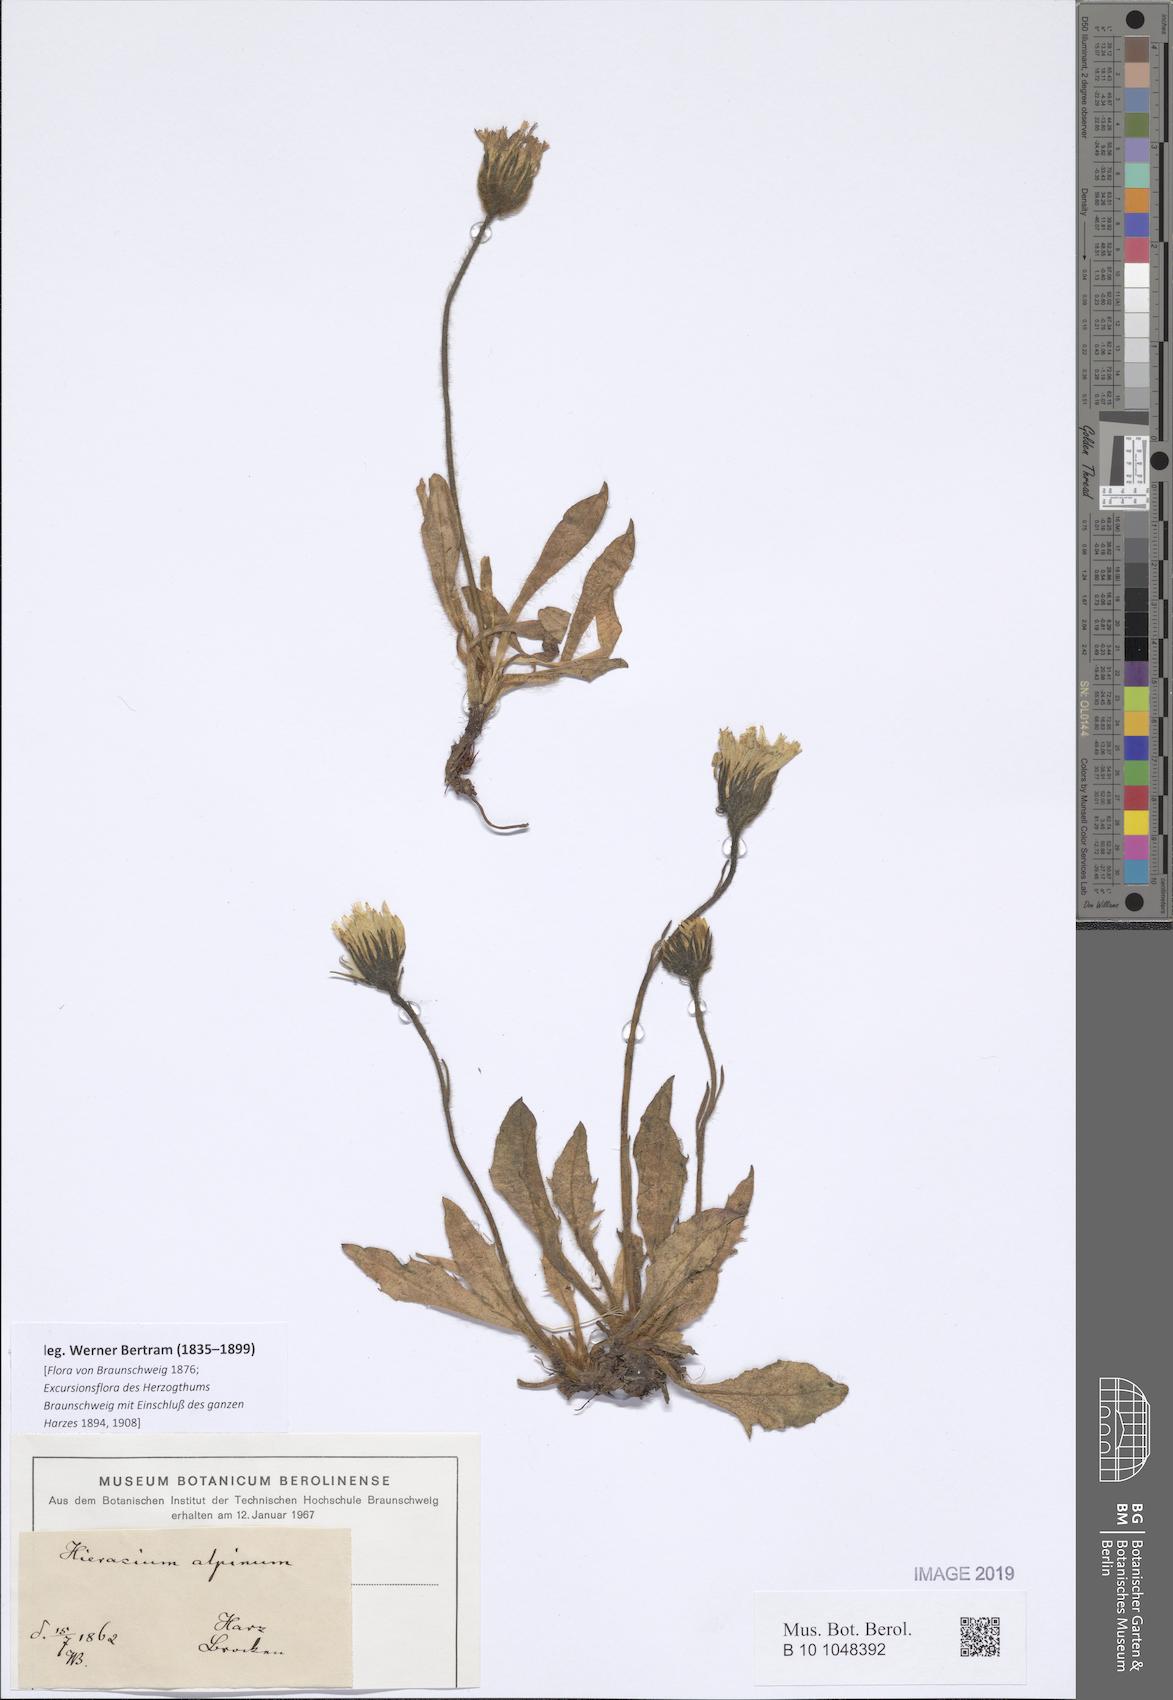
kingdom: Plantae
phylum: Tracheophyta
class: Magnoliopsida
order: Asterales
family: Asteraceae
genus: Hieracium
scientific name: Hieracium nigrescens
